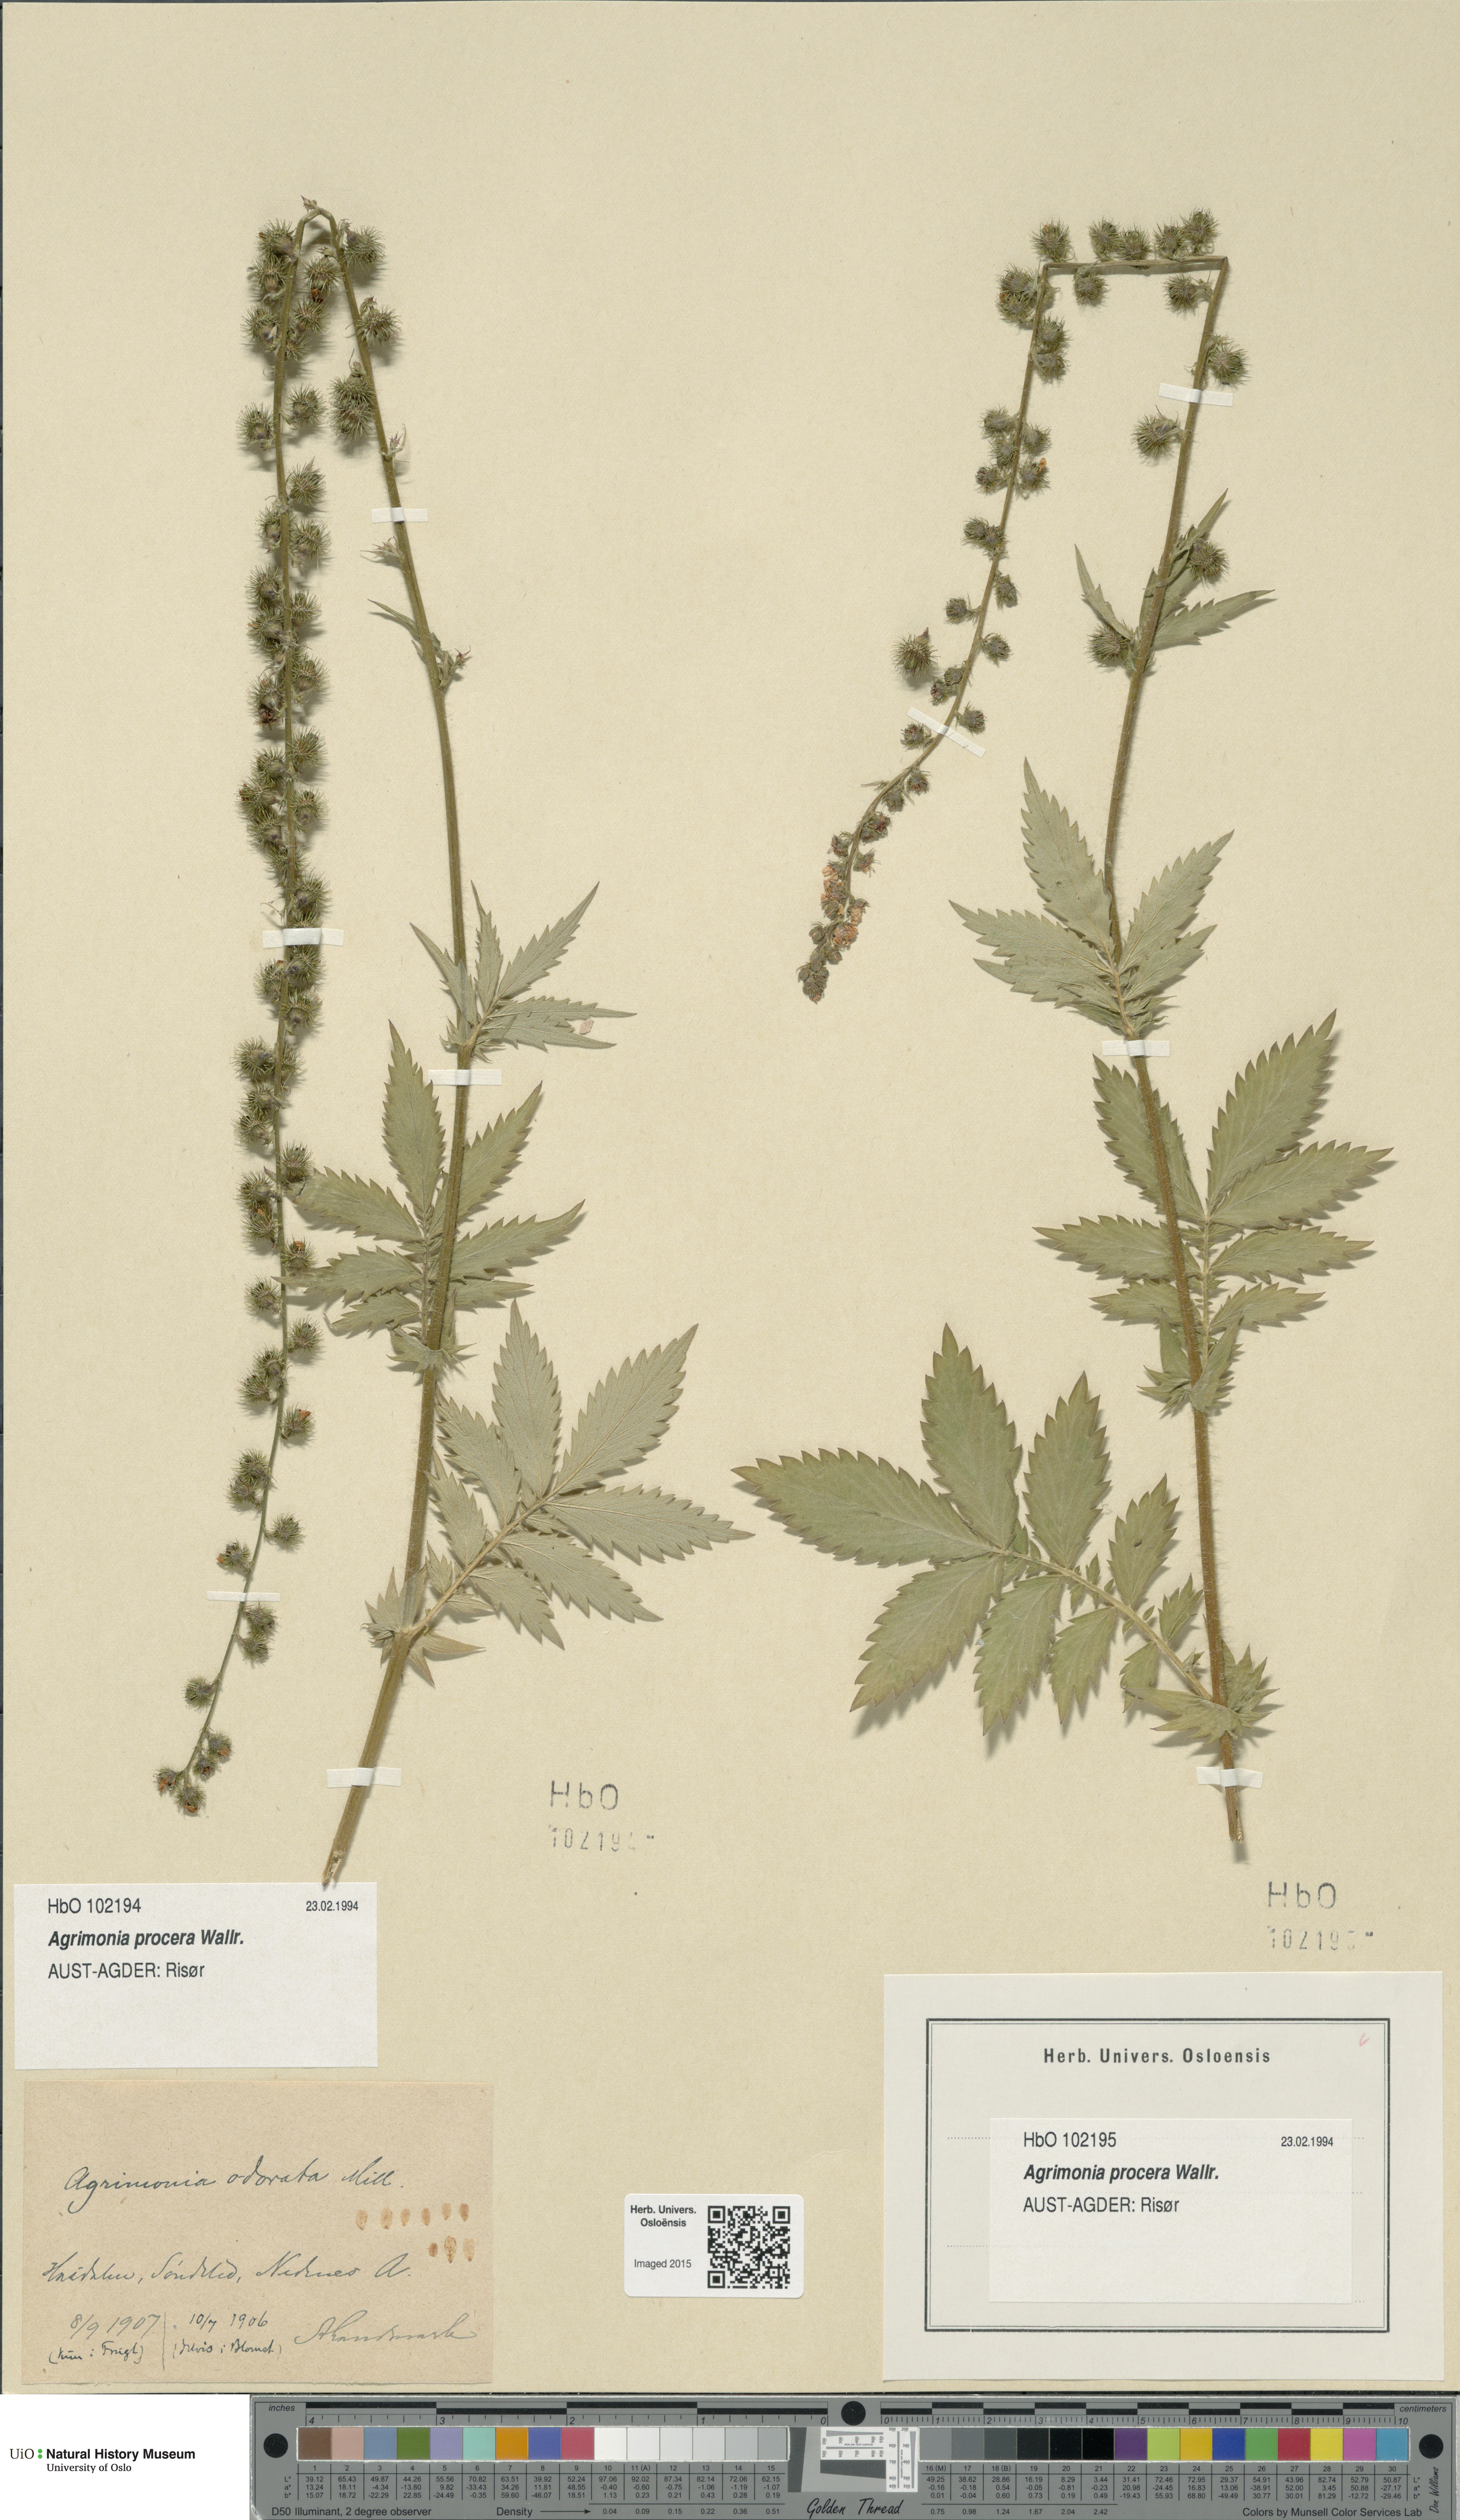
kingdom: Plantae
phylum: Tracheophyta
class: Magnoliopsida
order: Rosales
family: Rosaceae
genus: Agrimonia
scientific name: Agrimonia procera
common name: Fragrant agrimony
